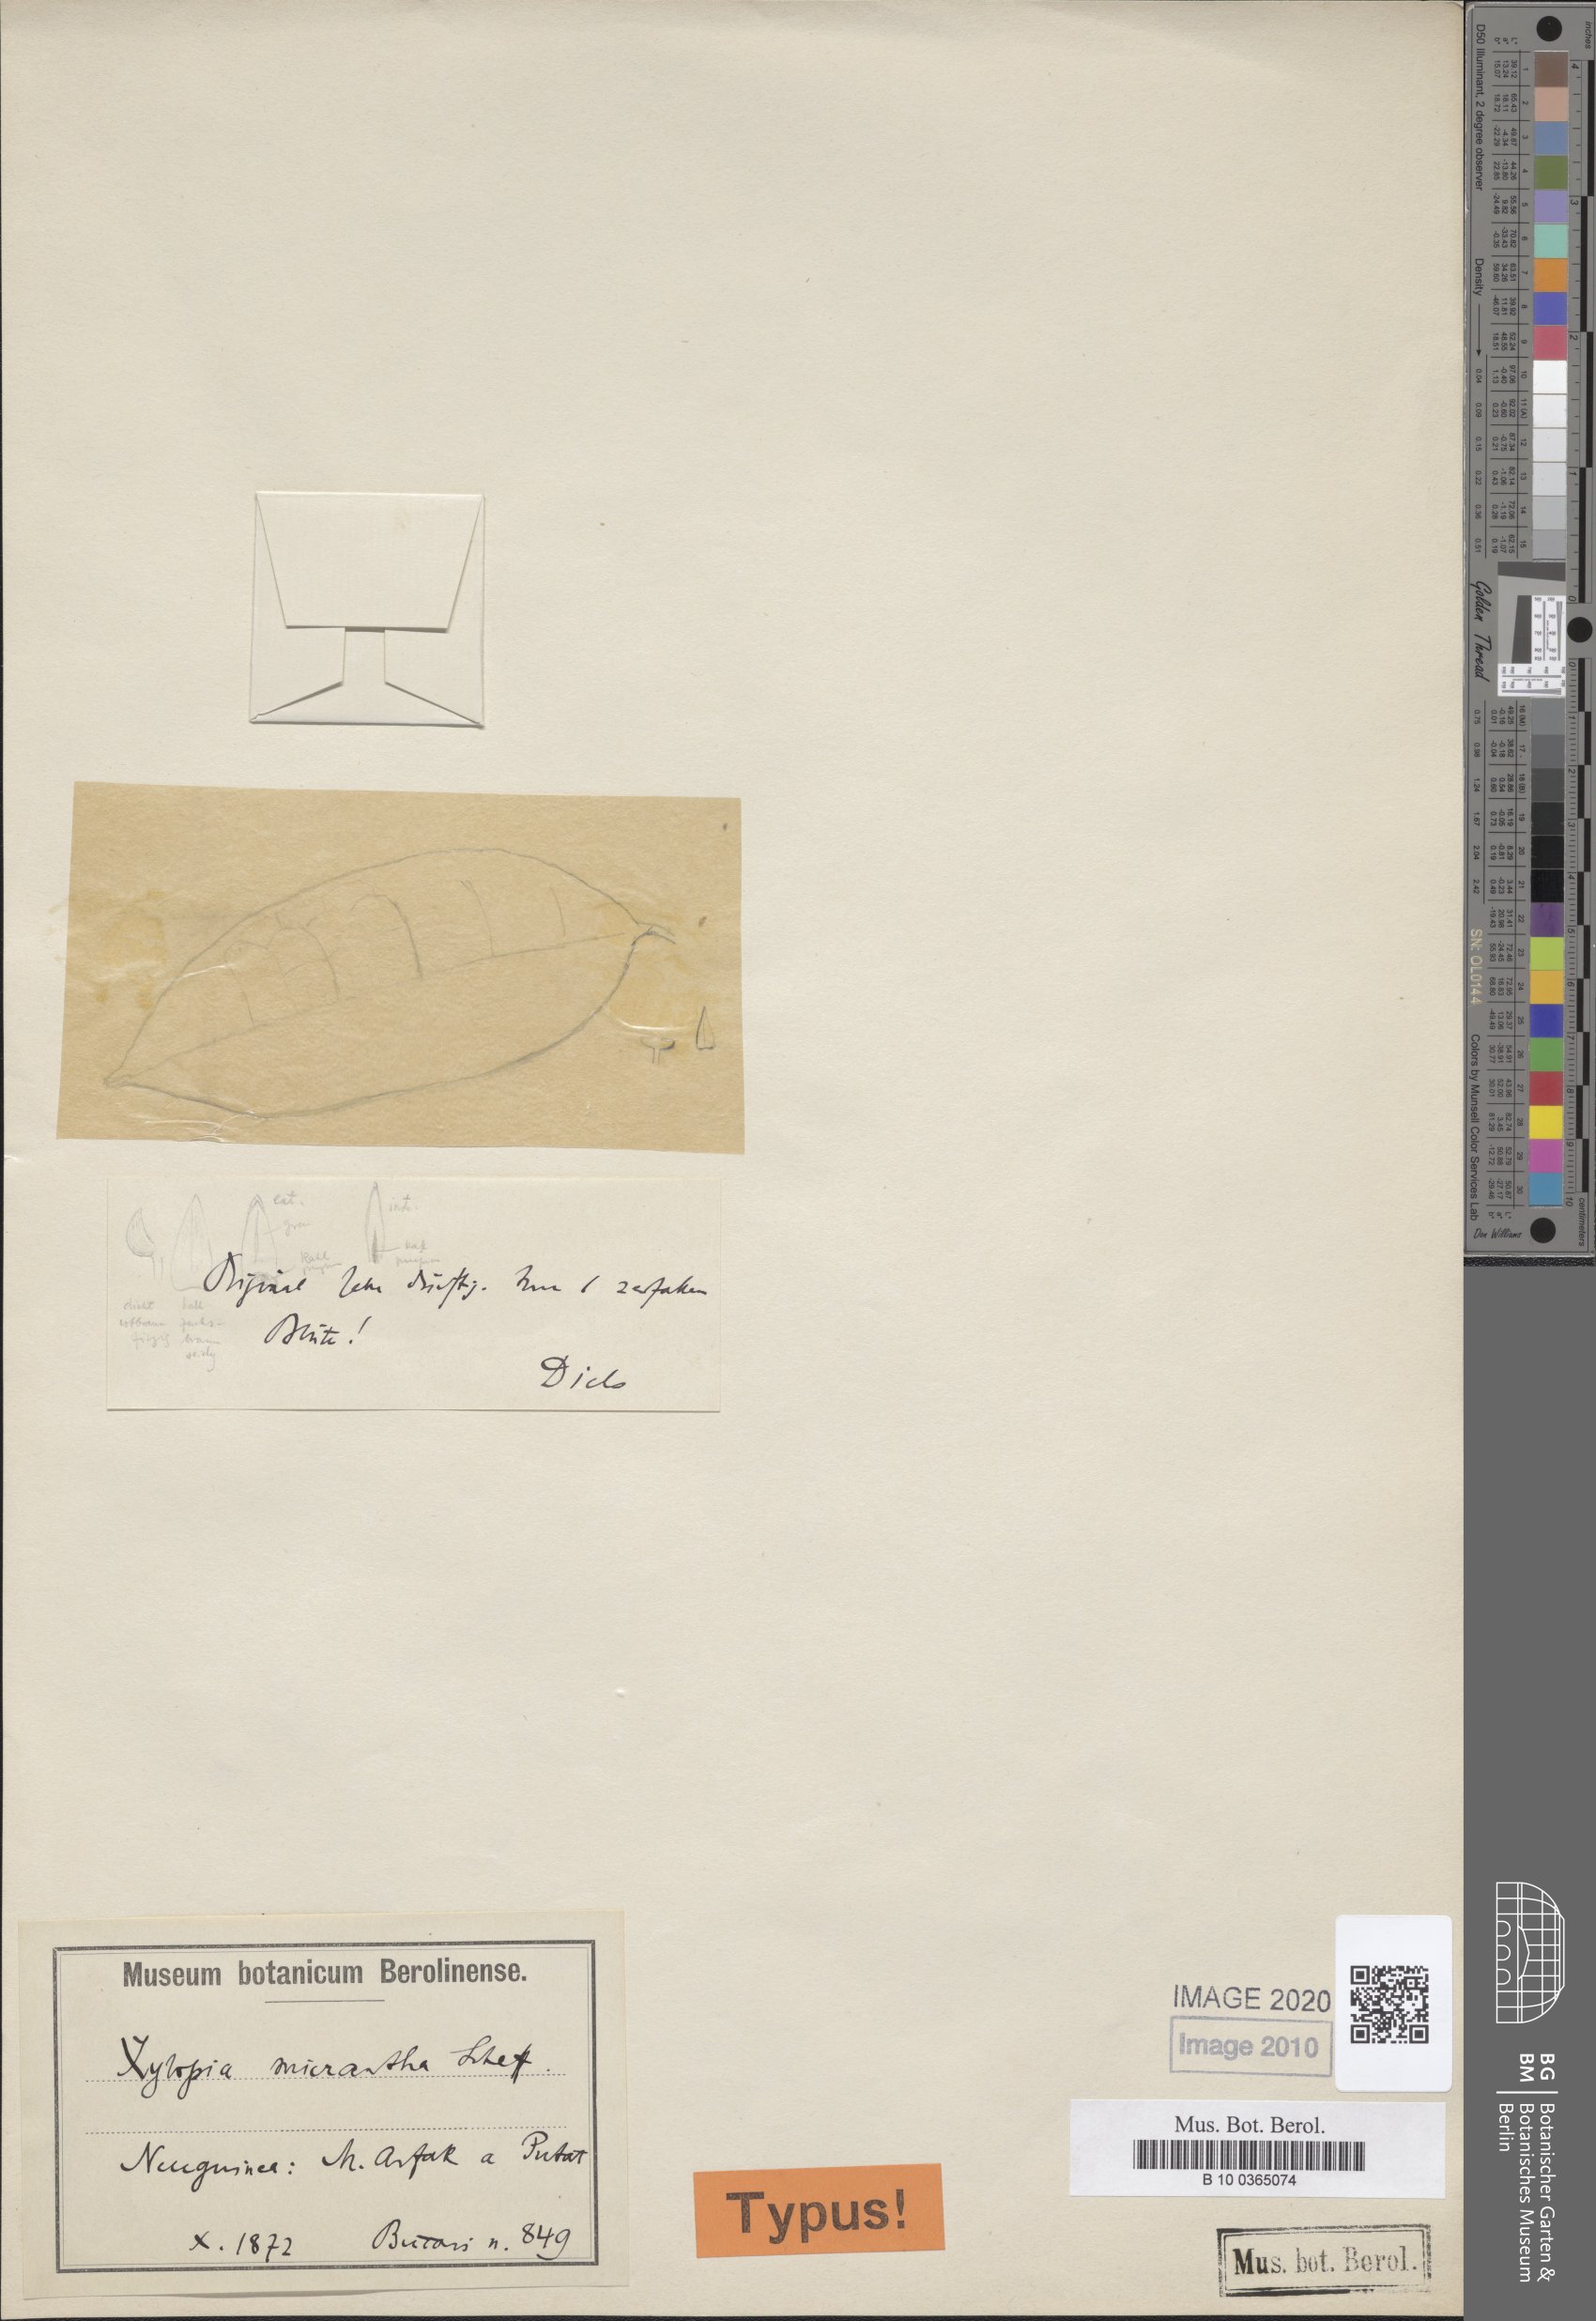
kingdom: Plantae
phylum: Tracheophyta
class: Magnoliopsida
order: Magnoliales
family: Annonaceae
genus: Xylopia
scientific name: Xylopia micrantha
